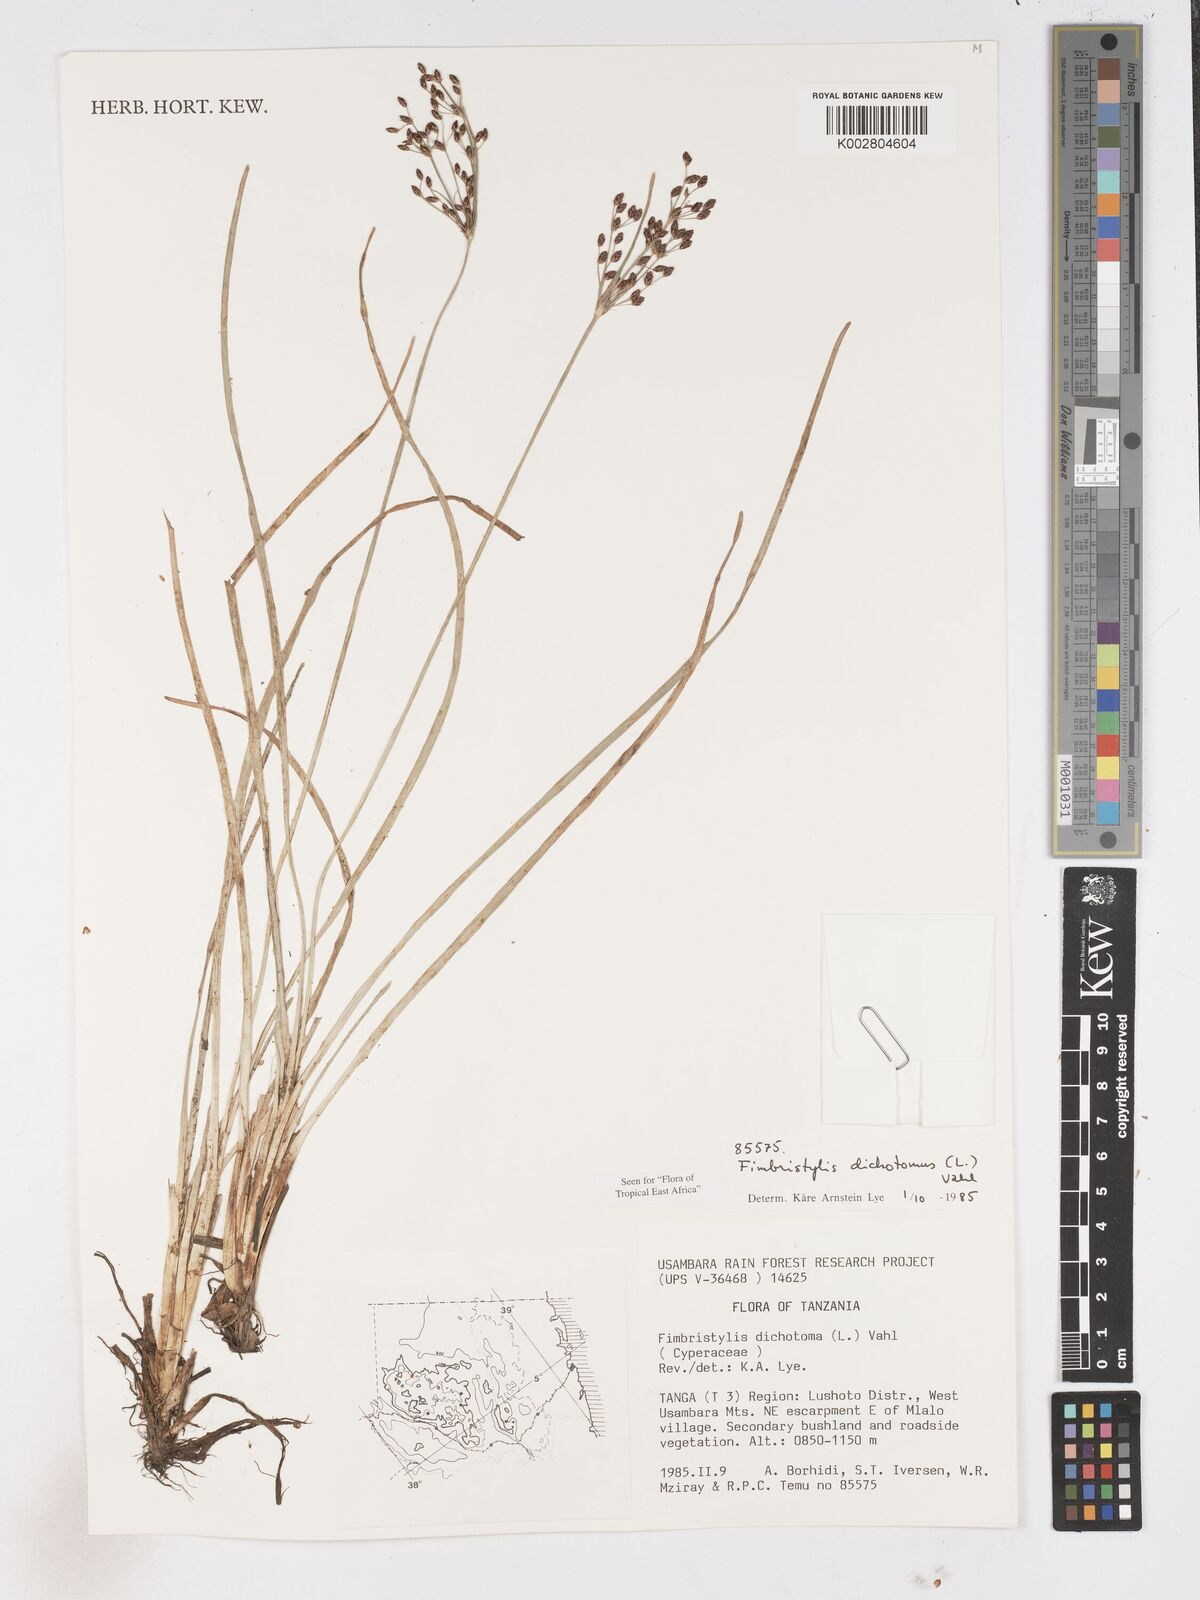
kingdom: Plantae
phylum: Tracheophyta
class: Liliopsida
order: Poales
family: Cyperaceae
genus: Fimbristylis
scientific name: Fimbristylis dichotoma
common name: Forked fimbry
